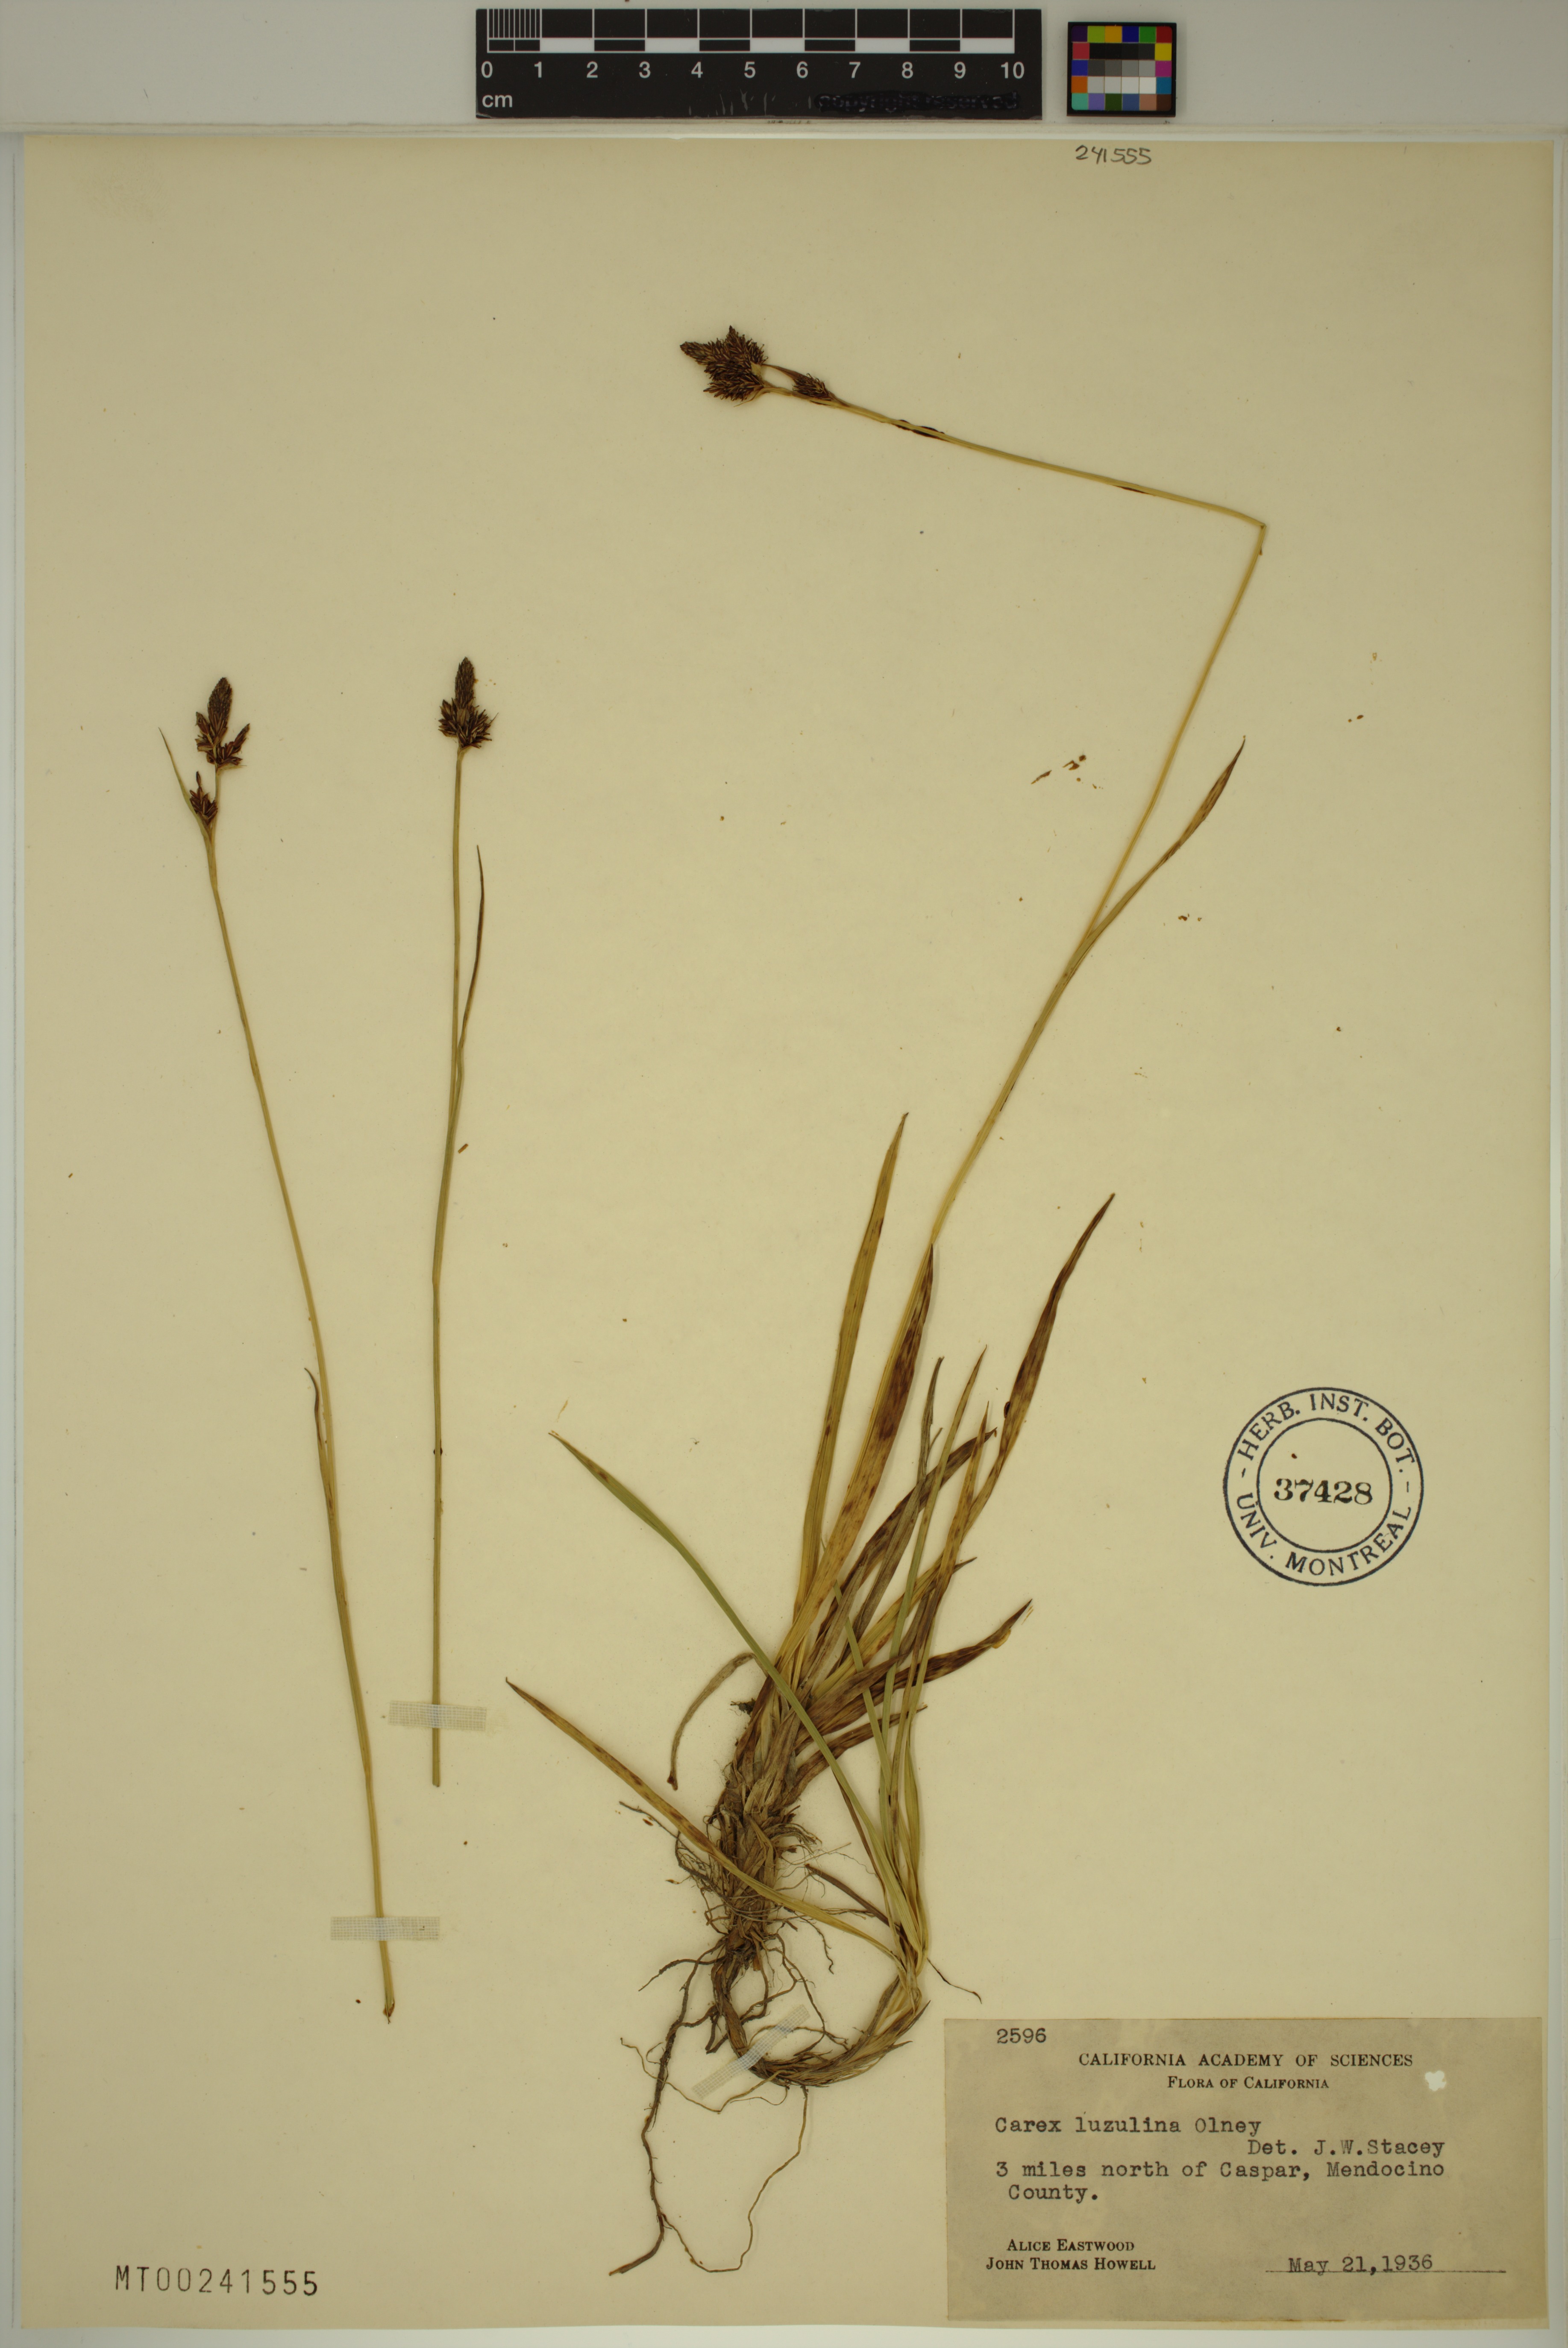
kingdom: Plantae
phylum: Tracheophyta
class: Liliopsida
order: Poales
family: Cyperaceae
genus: Carex
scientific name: Carex luzulina
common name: Spring sedge
